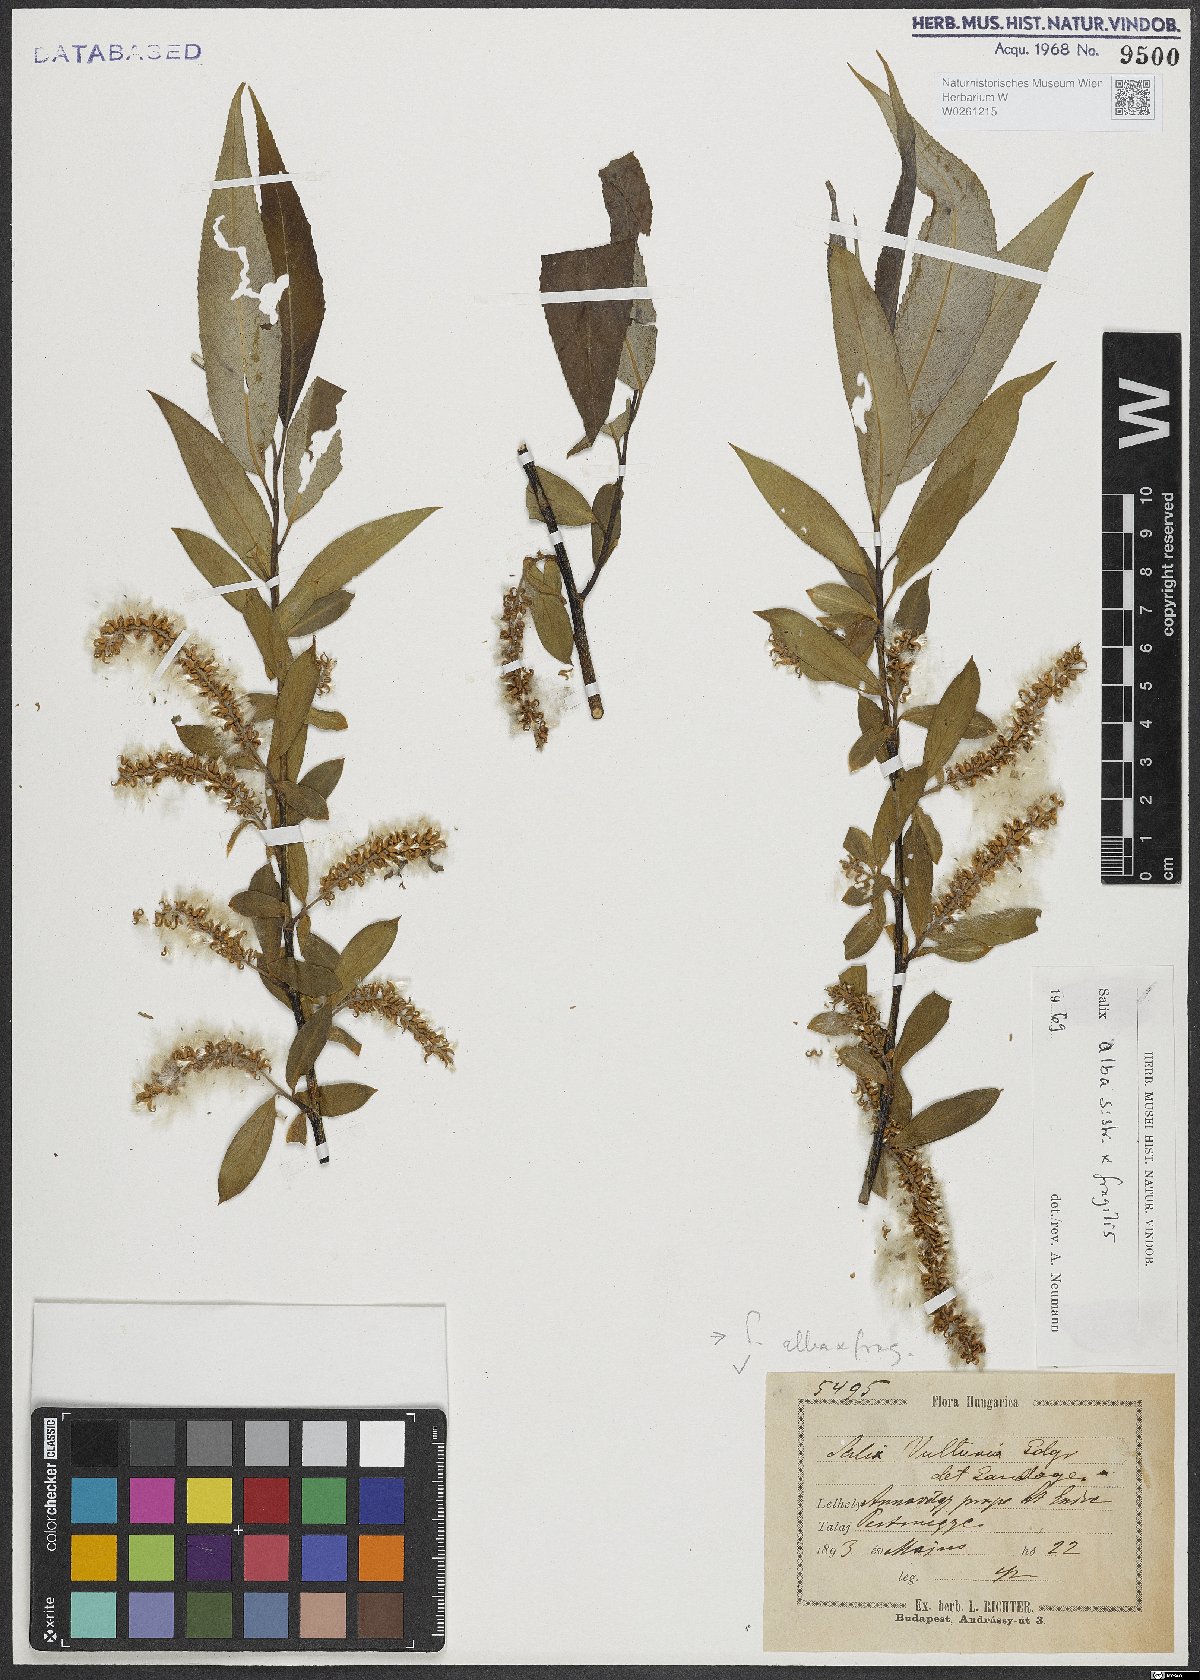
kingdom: Plantae
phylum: Tracheophyta
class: Magnoliopsida
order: Malpighiales
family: Salicaceae
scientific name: Salicaceae
